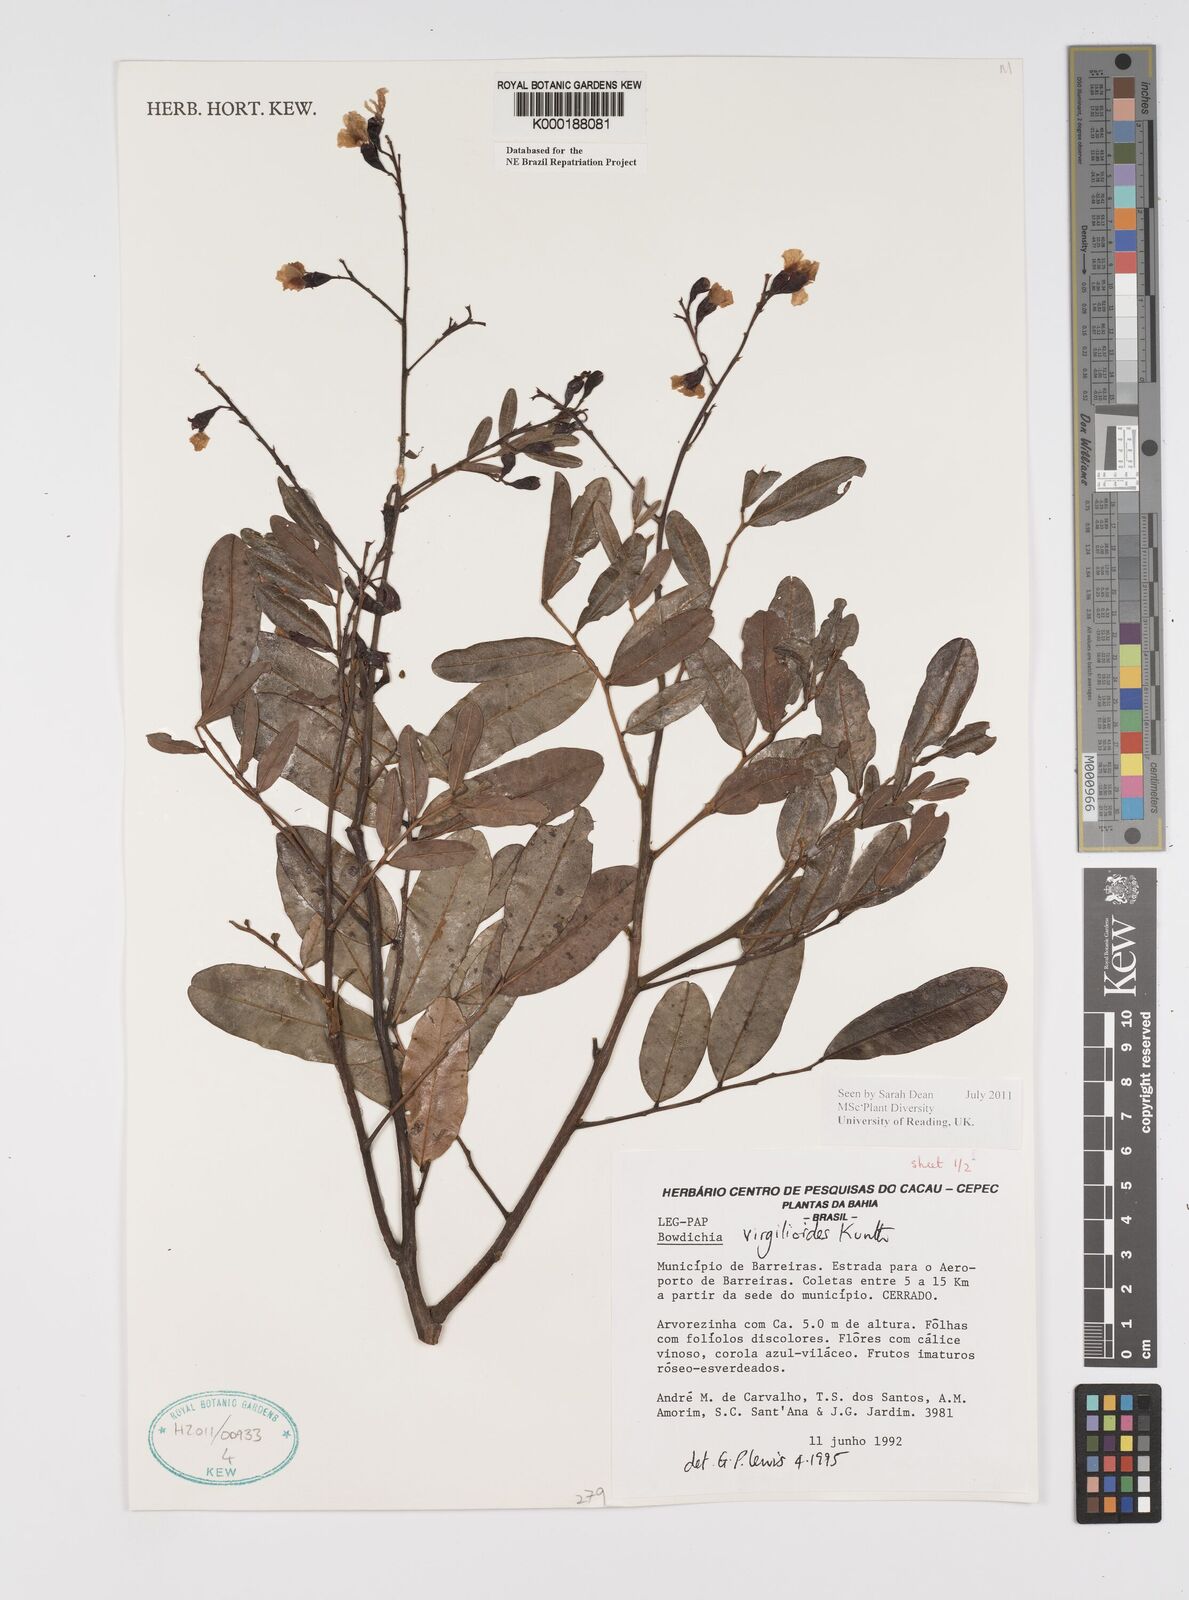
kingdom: Plantae
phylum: Tracheophyta
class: Magnoliopsida
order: Fabales
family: Fabaceae
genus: Bowdichia
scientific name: Bowdichia virgilioides
